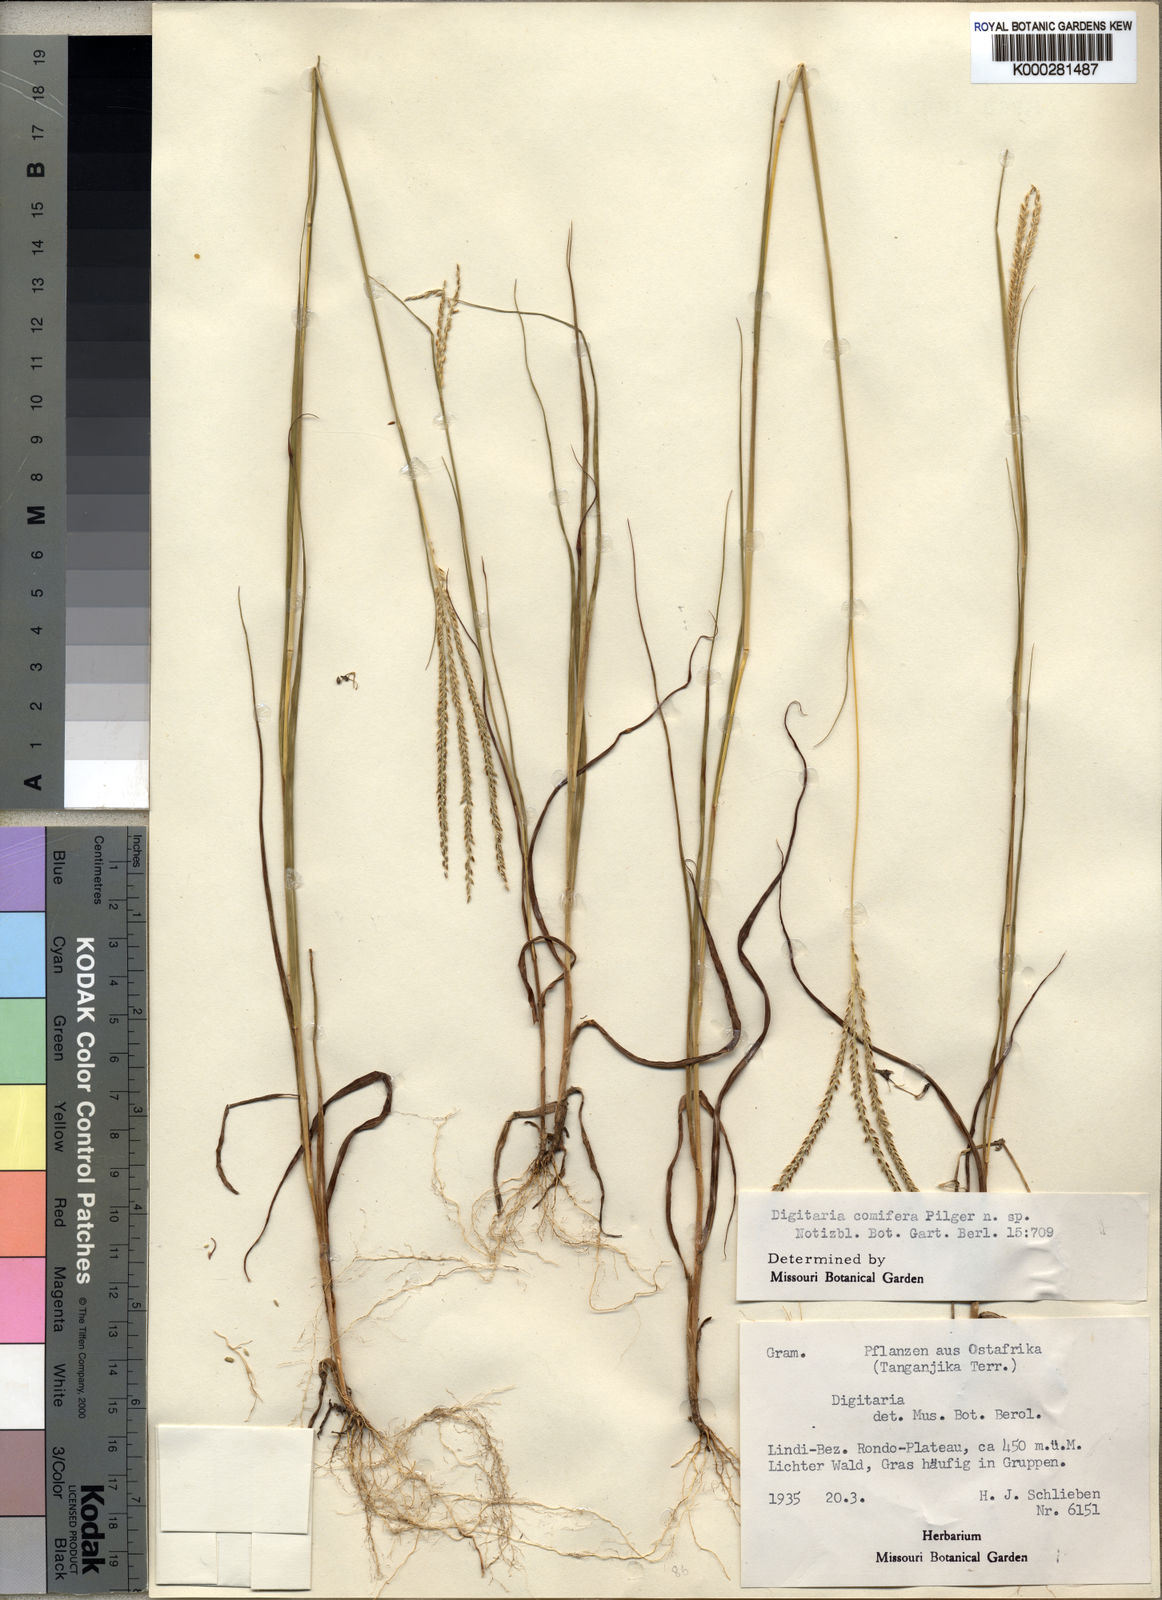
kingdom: Plantae
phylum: Tracheophyta
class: Liliopsida
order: Poales
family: Poaceae
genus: Digitaria
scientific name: Digitaria comifera
